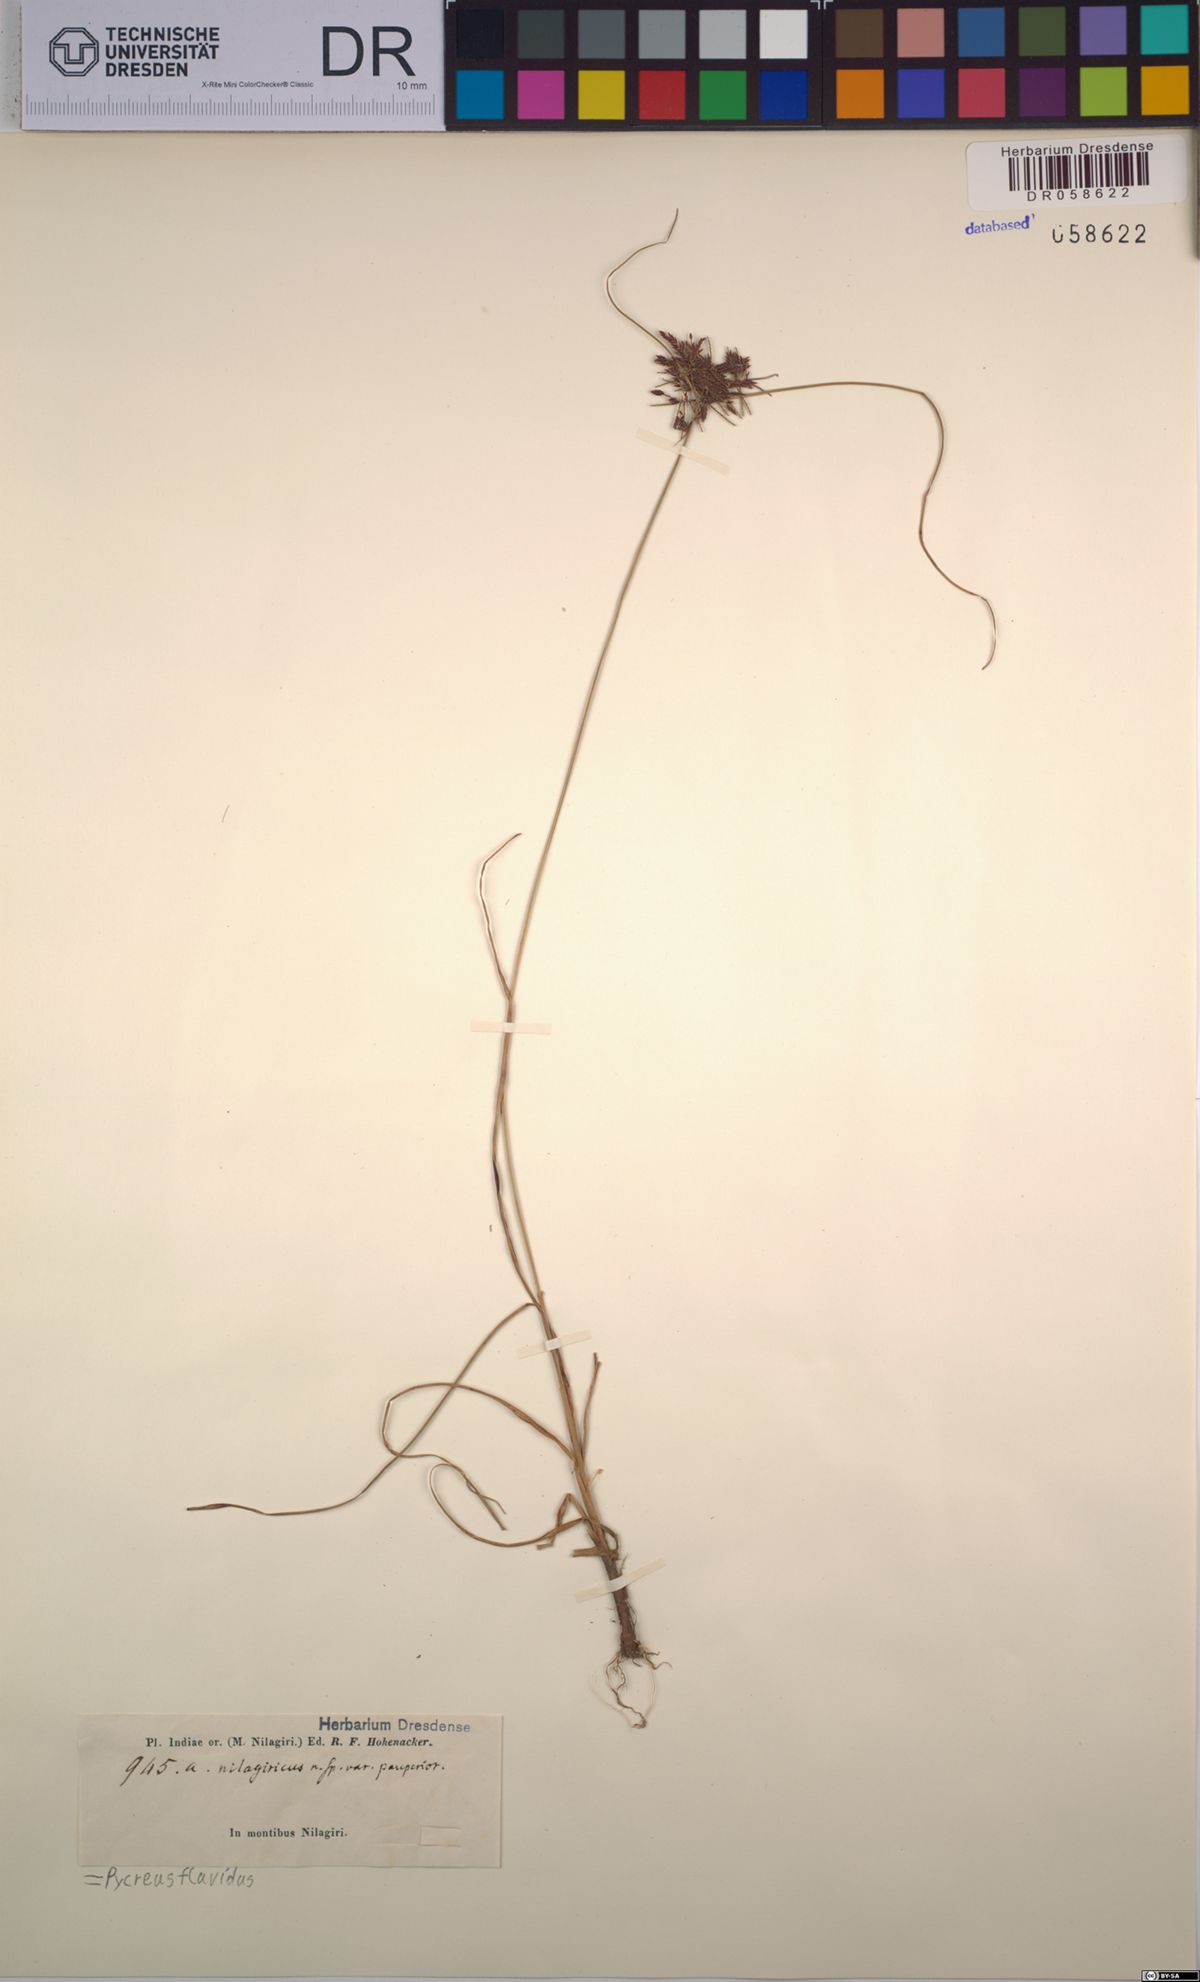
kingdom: Plantae
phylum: Tracheophyta
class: Liliopsida
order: Poales
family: Cyperaceae
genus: Cyperus
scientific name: Cyperus flavidus
